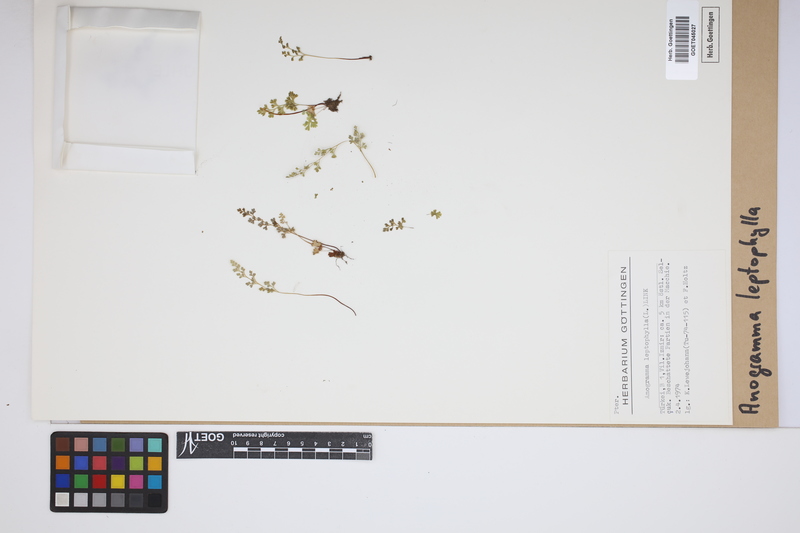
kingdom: Plantae
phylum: Tracheophyta
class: Polypodiopsida
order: Polypodiales
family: Pteridaceae
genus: Anogramma
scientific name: Anogramma leptophylla
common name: Jersey fern
